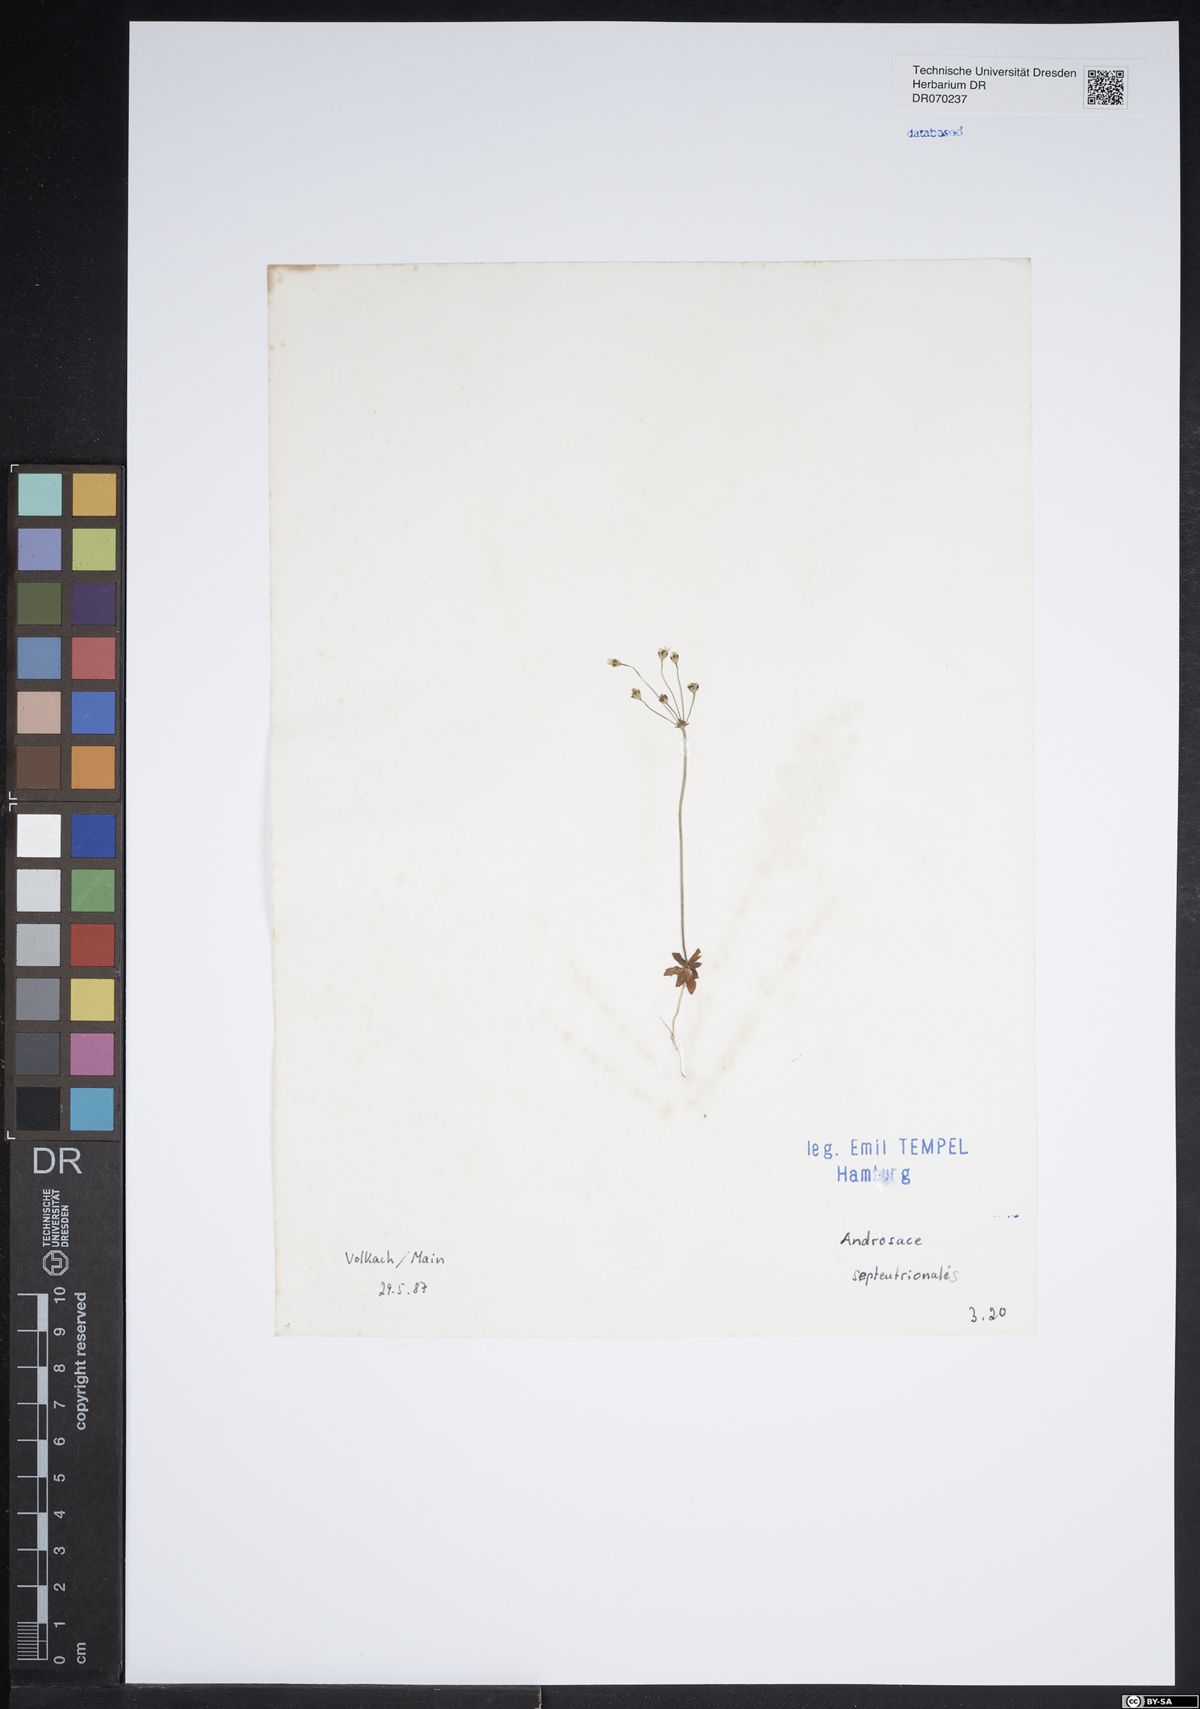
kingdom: Plantae
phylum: Tracheophyta
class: Magnoliopsida
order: Ericales
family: Primulaceae
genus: Androsace
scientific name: Androsace septentrionalis
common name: Hairy northern fairy-candelabra
